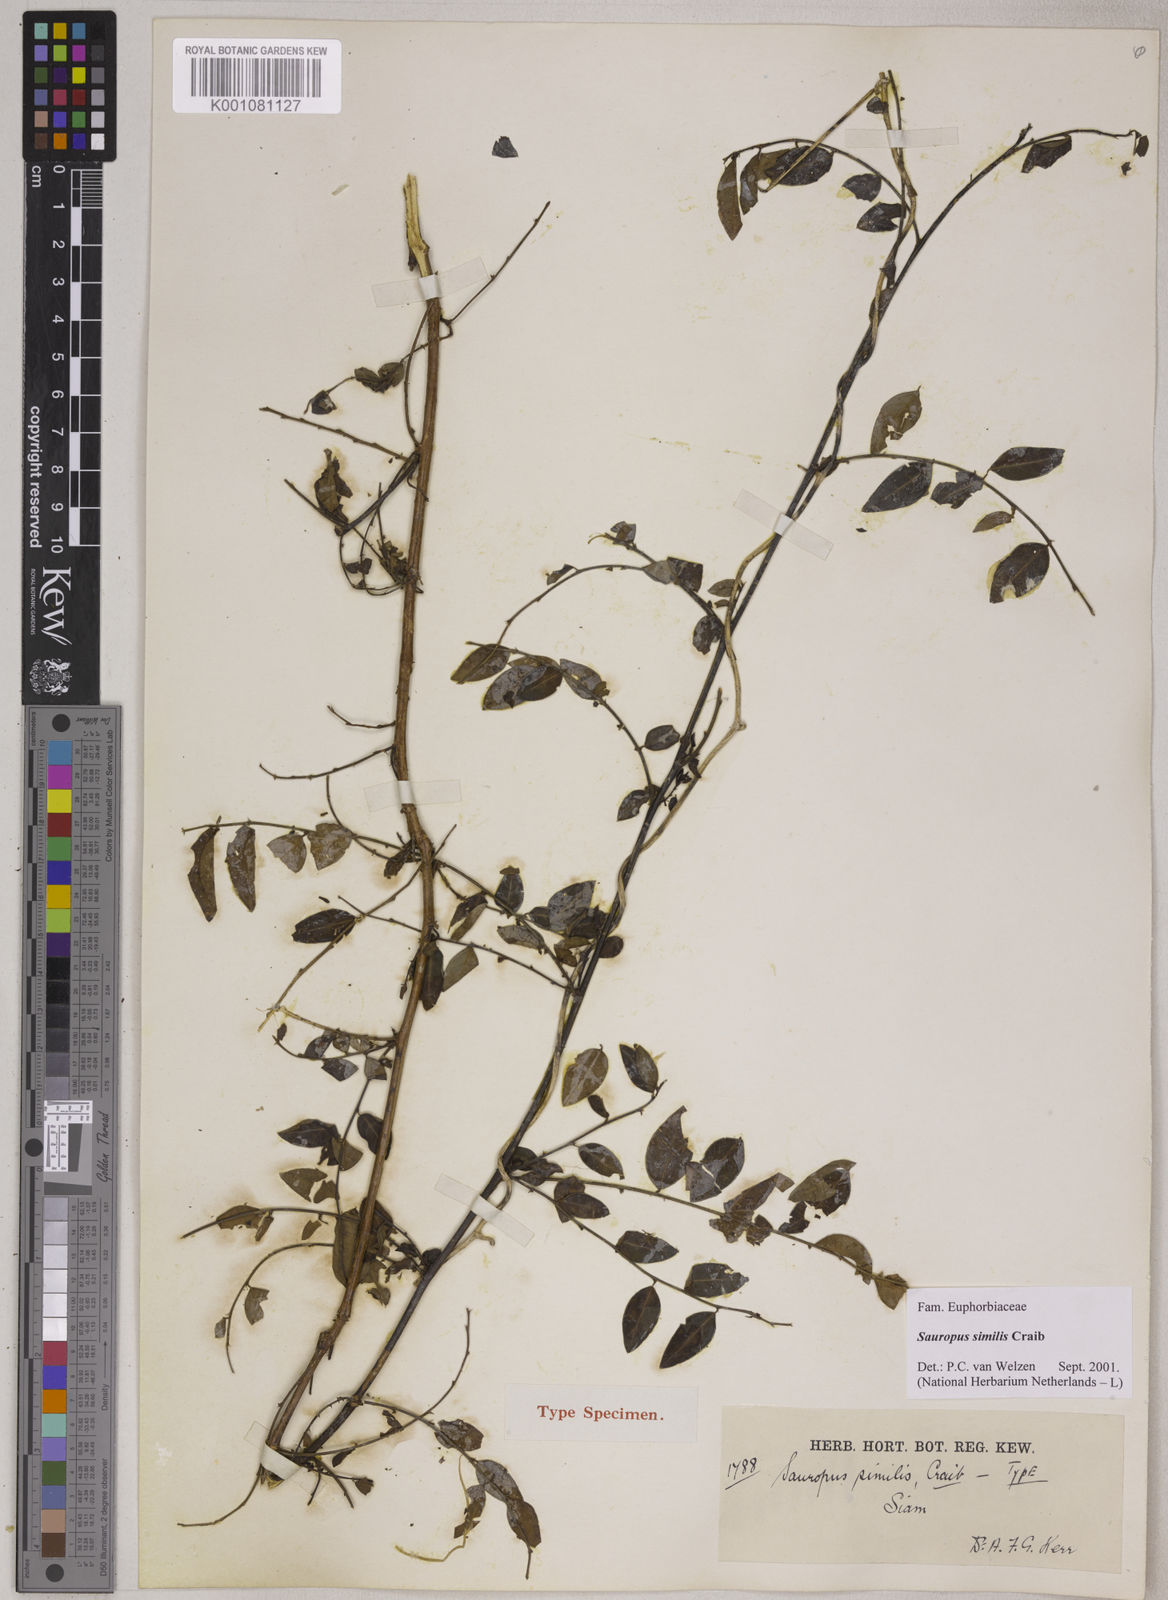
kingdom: Plantae
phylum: Tracheophyta
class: Magnoliopsida
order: Malpighiales
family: Phyllanthaceae
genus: Breynia
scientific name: Breynia similis
